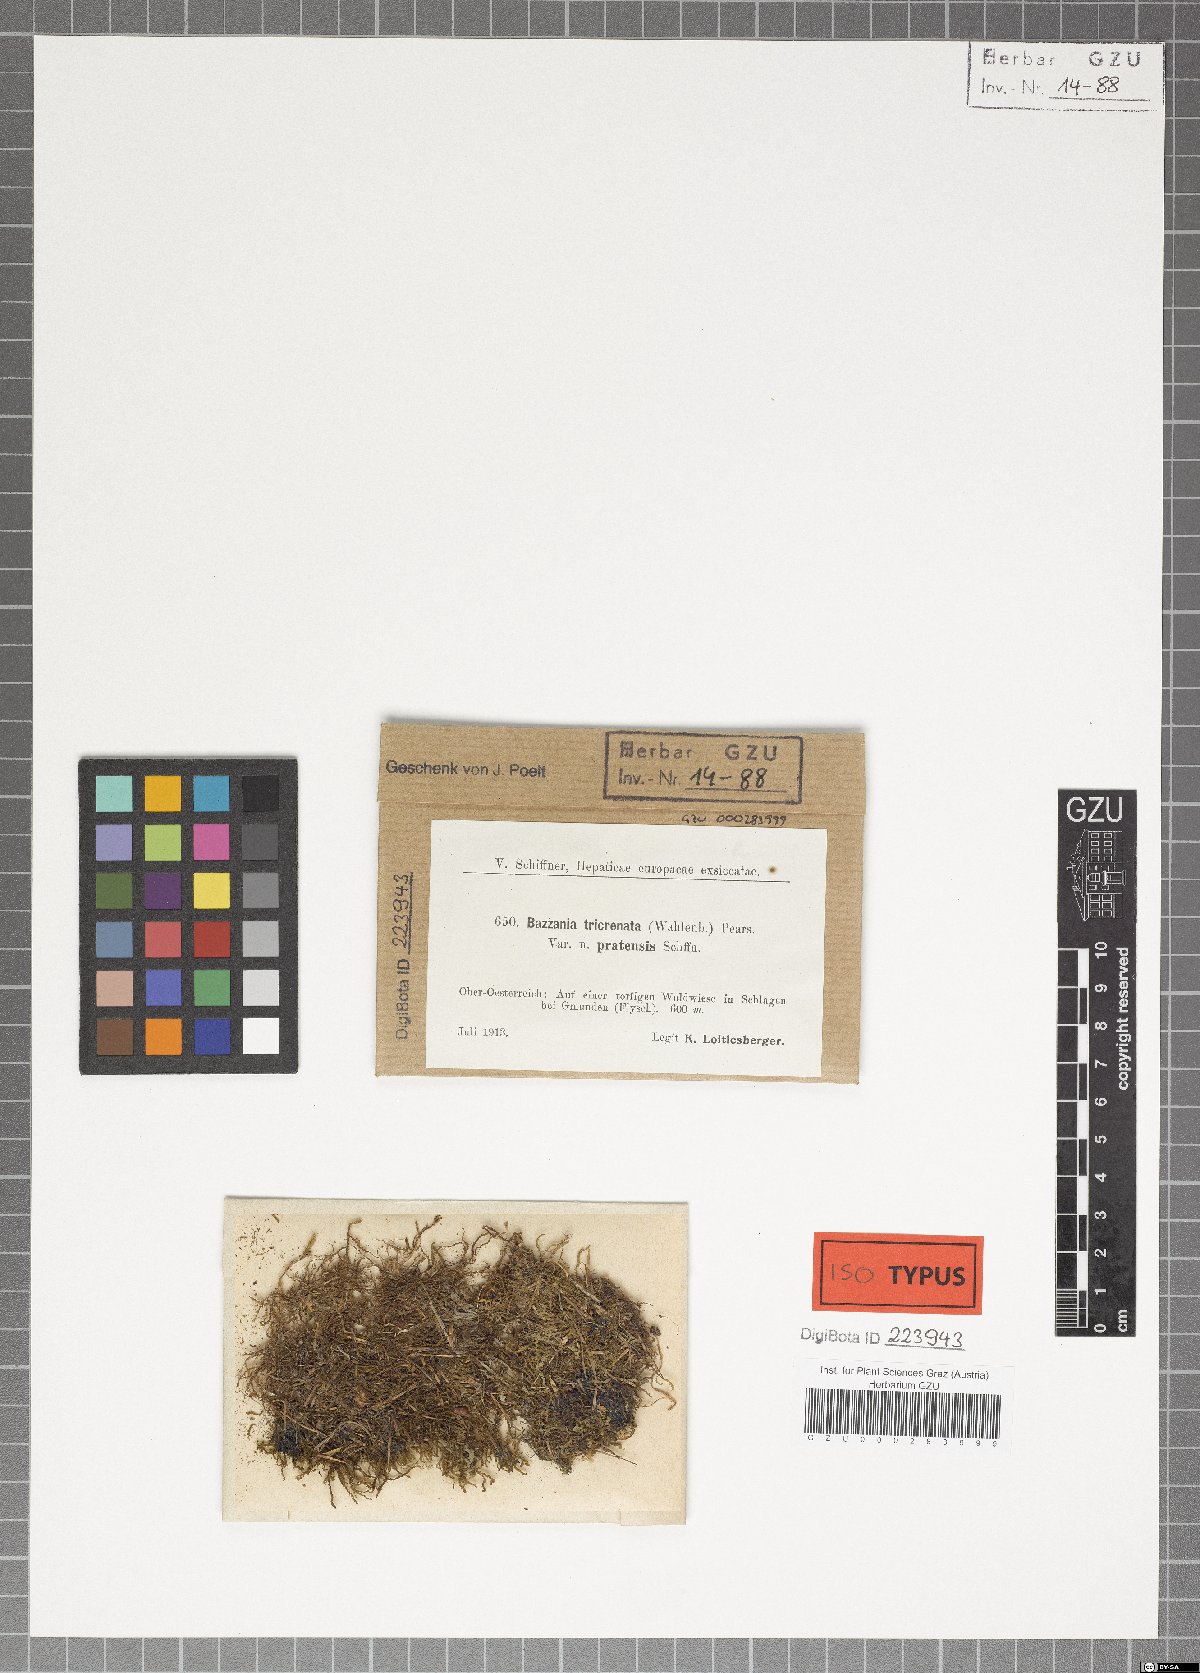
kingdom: Plantae
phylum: Marchantiophyta
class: Jungermanniopsida
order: Jungermanniales
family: Lepidoziaceae
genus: Bazzania
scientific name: Bazzania tricrenata
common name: Lesser whipwort
